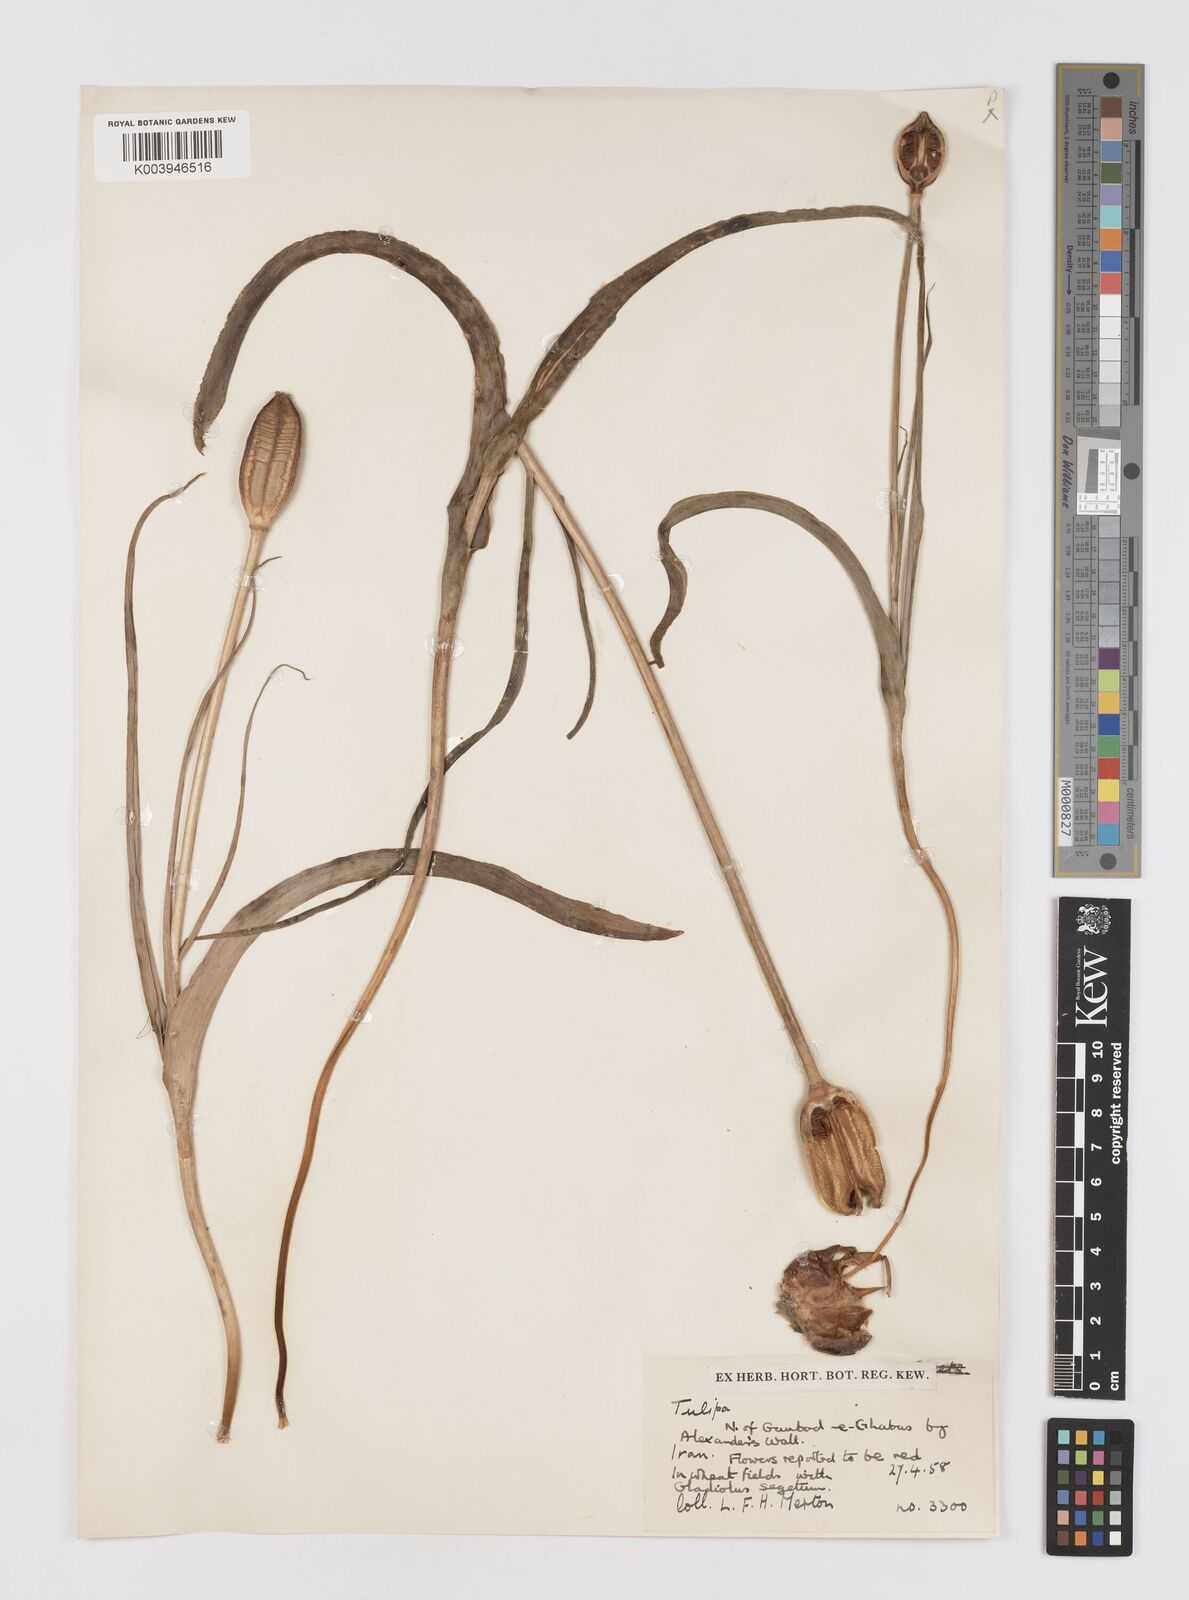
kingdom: Plantae
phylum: Tracheophyta
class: Liliopsida
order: Liliales
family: Liliaceae
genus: Tulipa
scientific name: Tulipa
